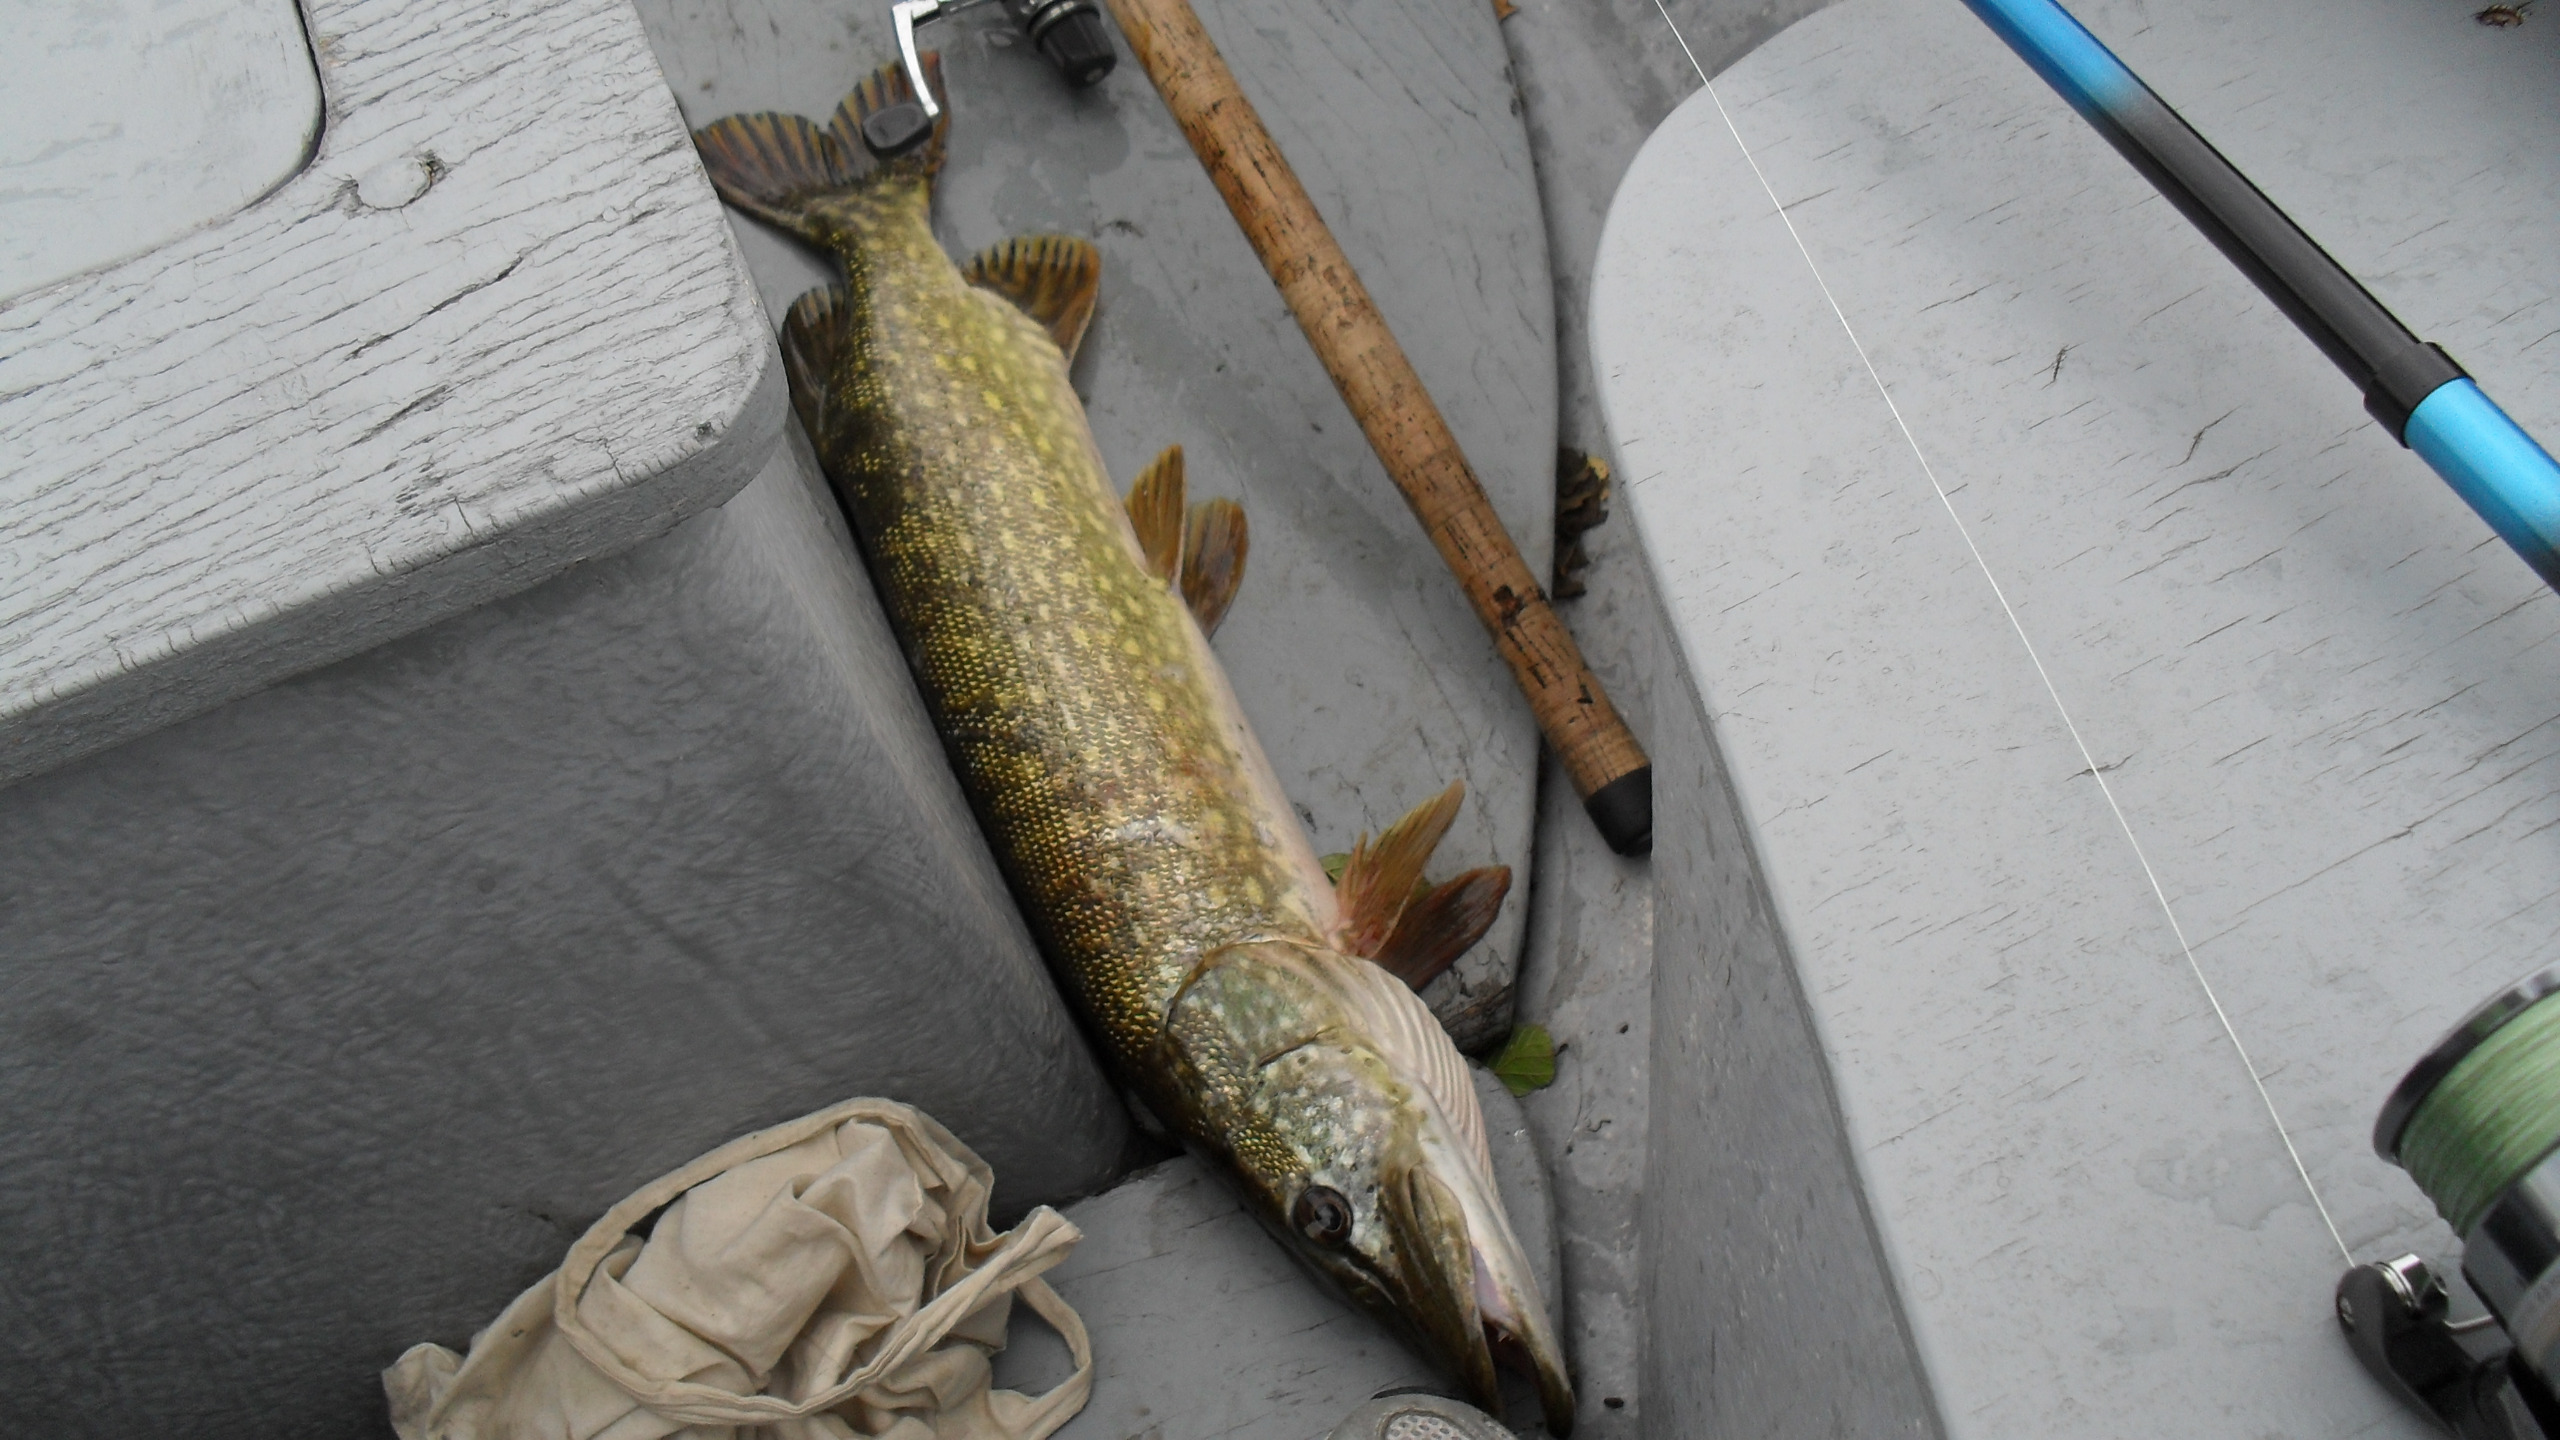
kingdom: Animalia
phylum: Chordata
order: Esociformes
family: Esocidae
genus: Esox
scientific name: Esox lucius
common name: Gedde
